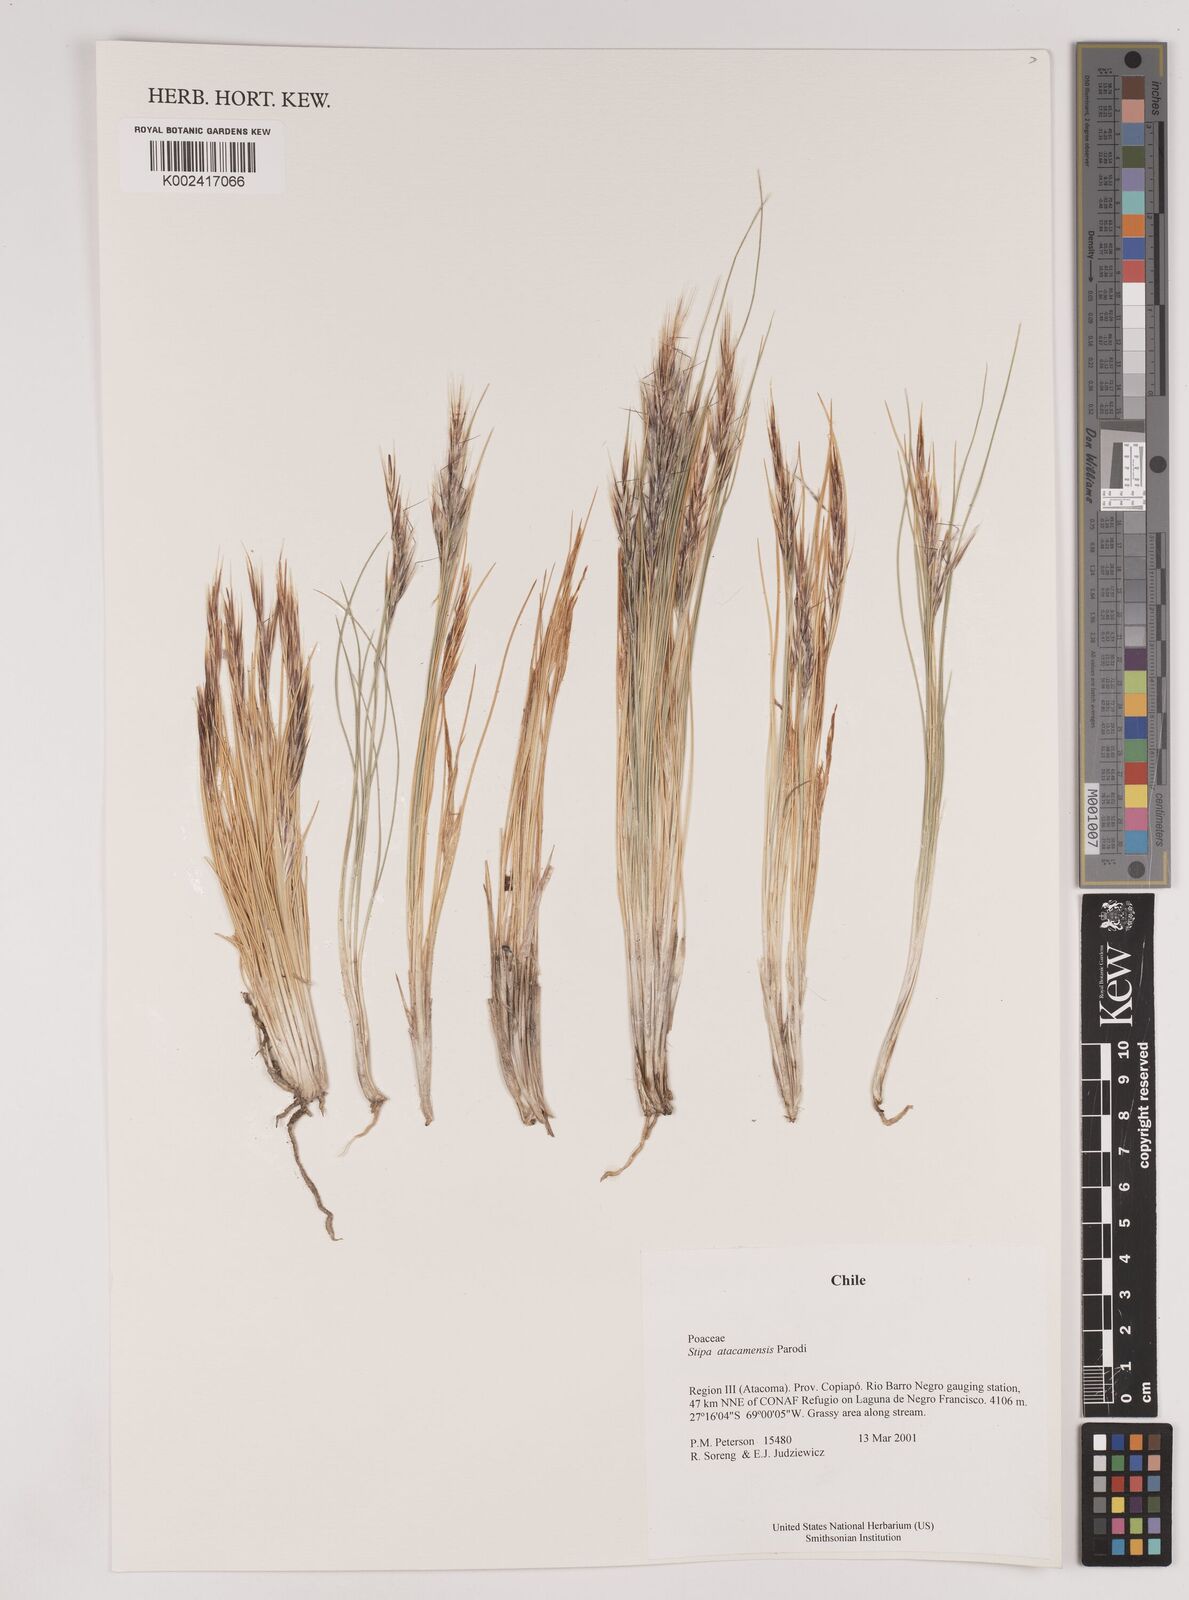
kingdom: Plantae
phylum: Tracheophyta
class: Liliopsida
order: Poales
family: Poaceae
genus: Pappostipa
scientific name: Pappostipa atacamensis
